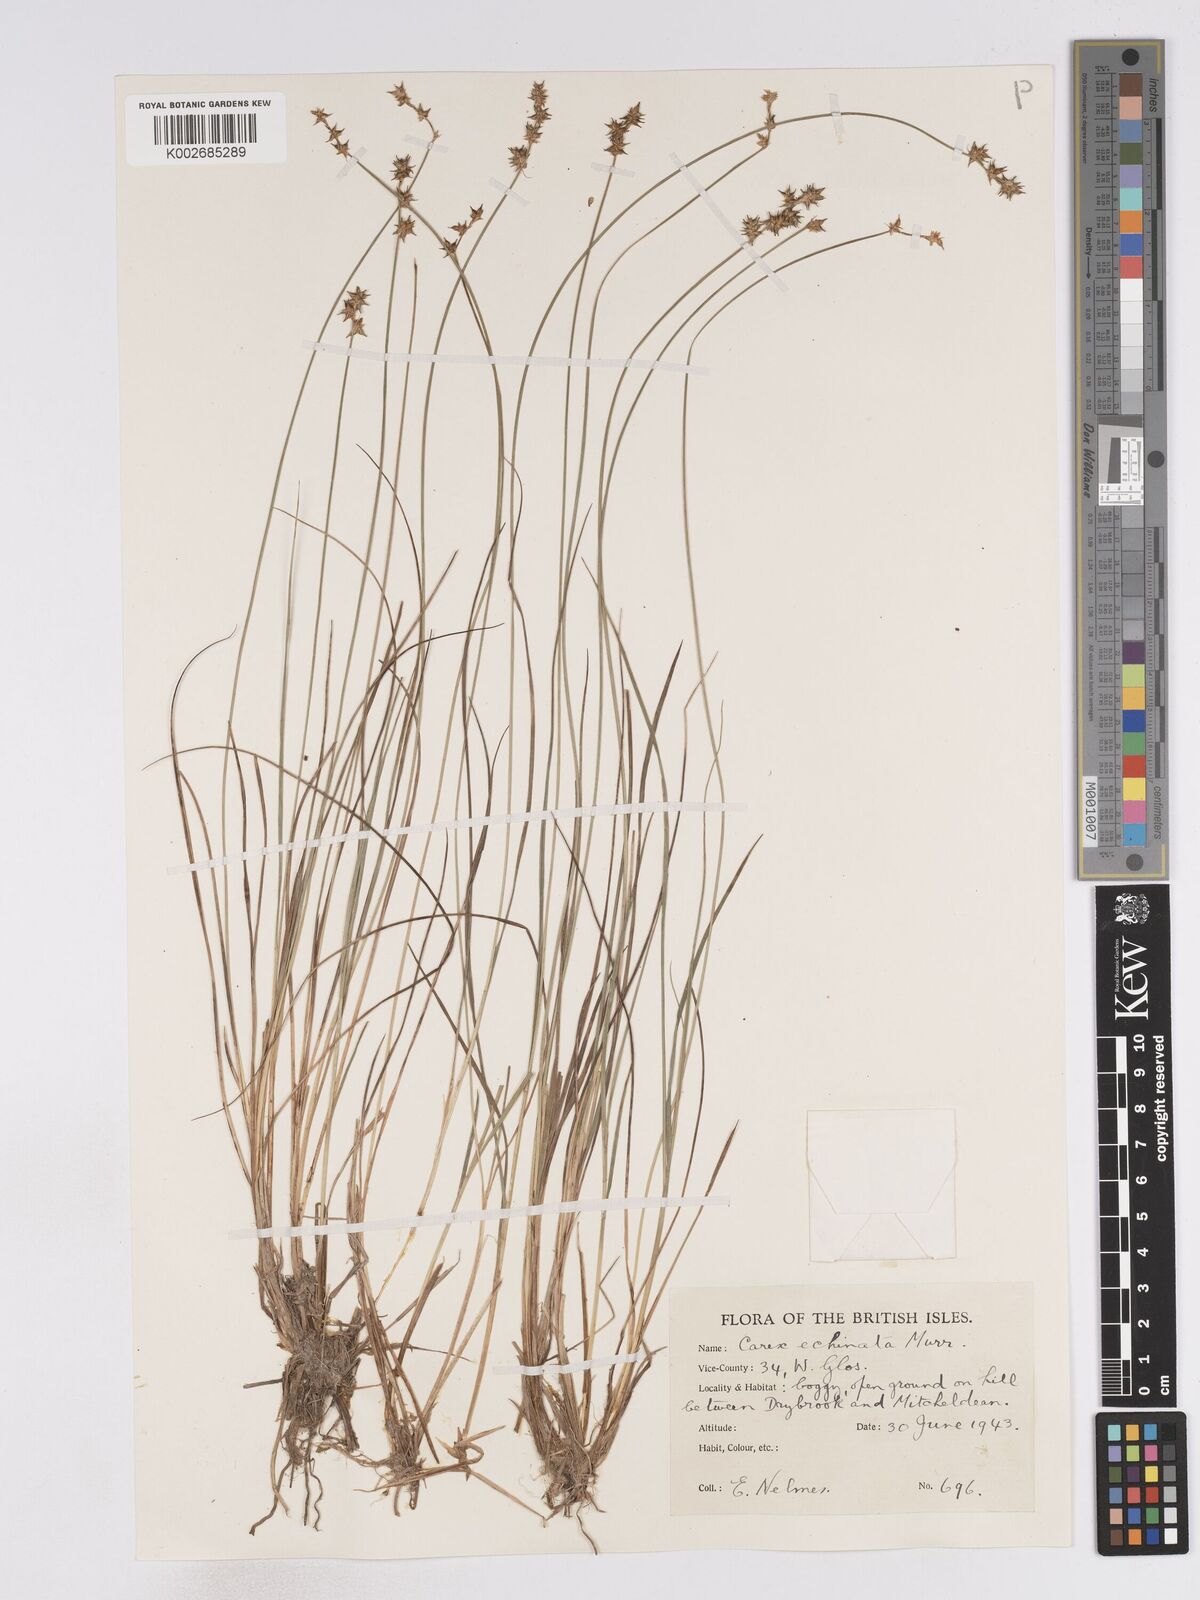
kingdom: Plantae
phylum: Tracheophyta
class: Liliopsida
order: Poales
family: Cyperaceae
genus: Carex
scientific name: Carex echinata
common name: Star sedge
